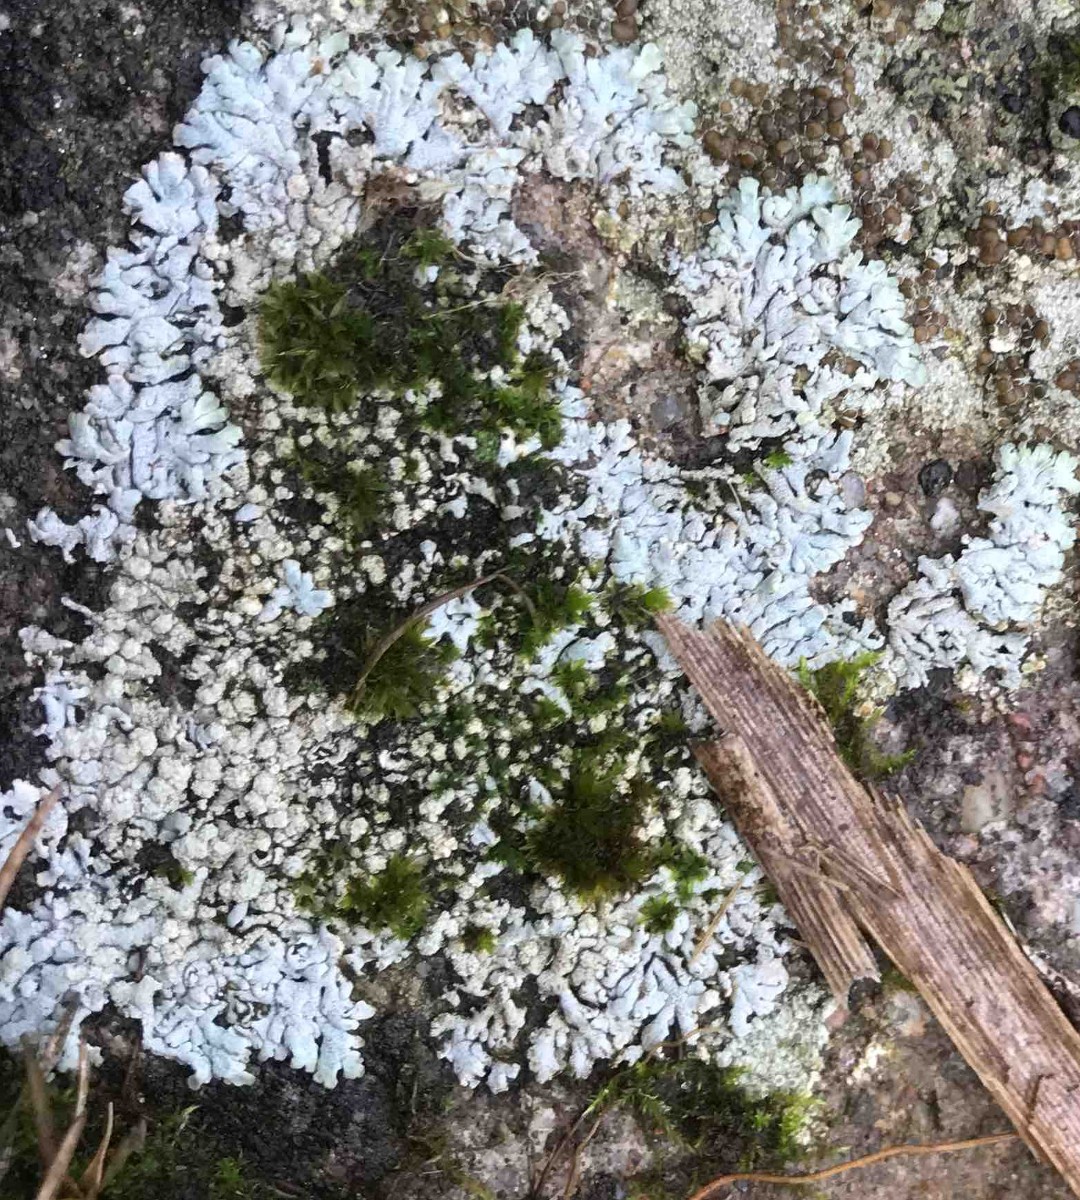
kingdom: Fungi
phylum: Ascomycota
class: Lecanoromycetes
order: Caliciales
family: Physciaceae
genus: Physcia
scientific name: Physcia caesia
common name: blågrå rosetlav
